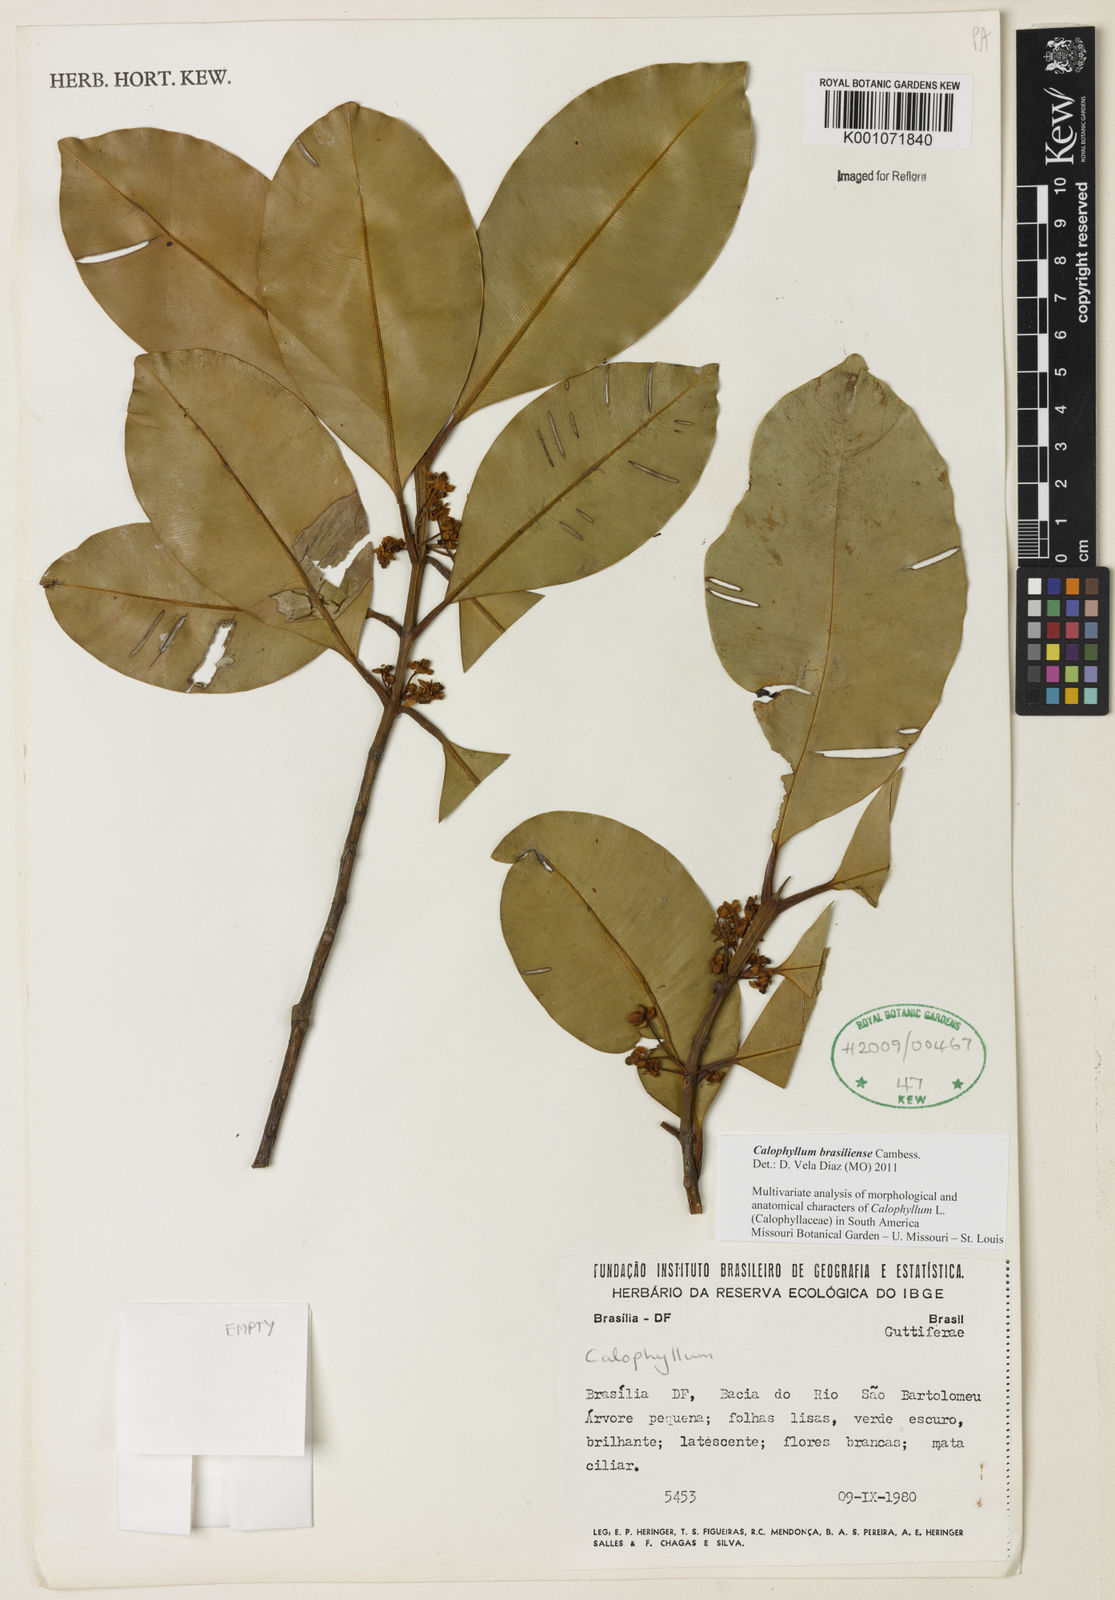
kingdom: Plantae
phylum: Tracheophyta
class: Magnoliopsida
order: Malpighiales
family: Calophyllaceae
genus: Calophyllum
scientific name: Calophyllum brasiliense
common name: Santa maria
